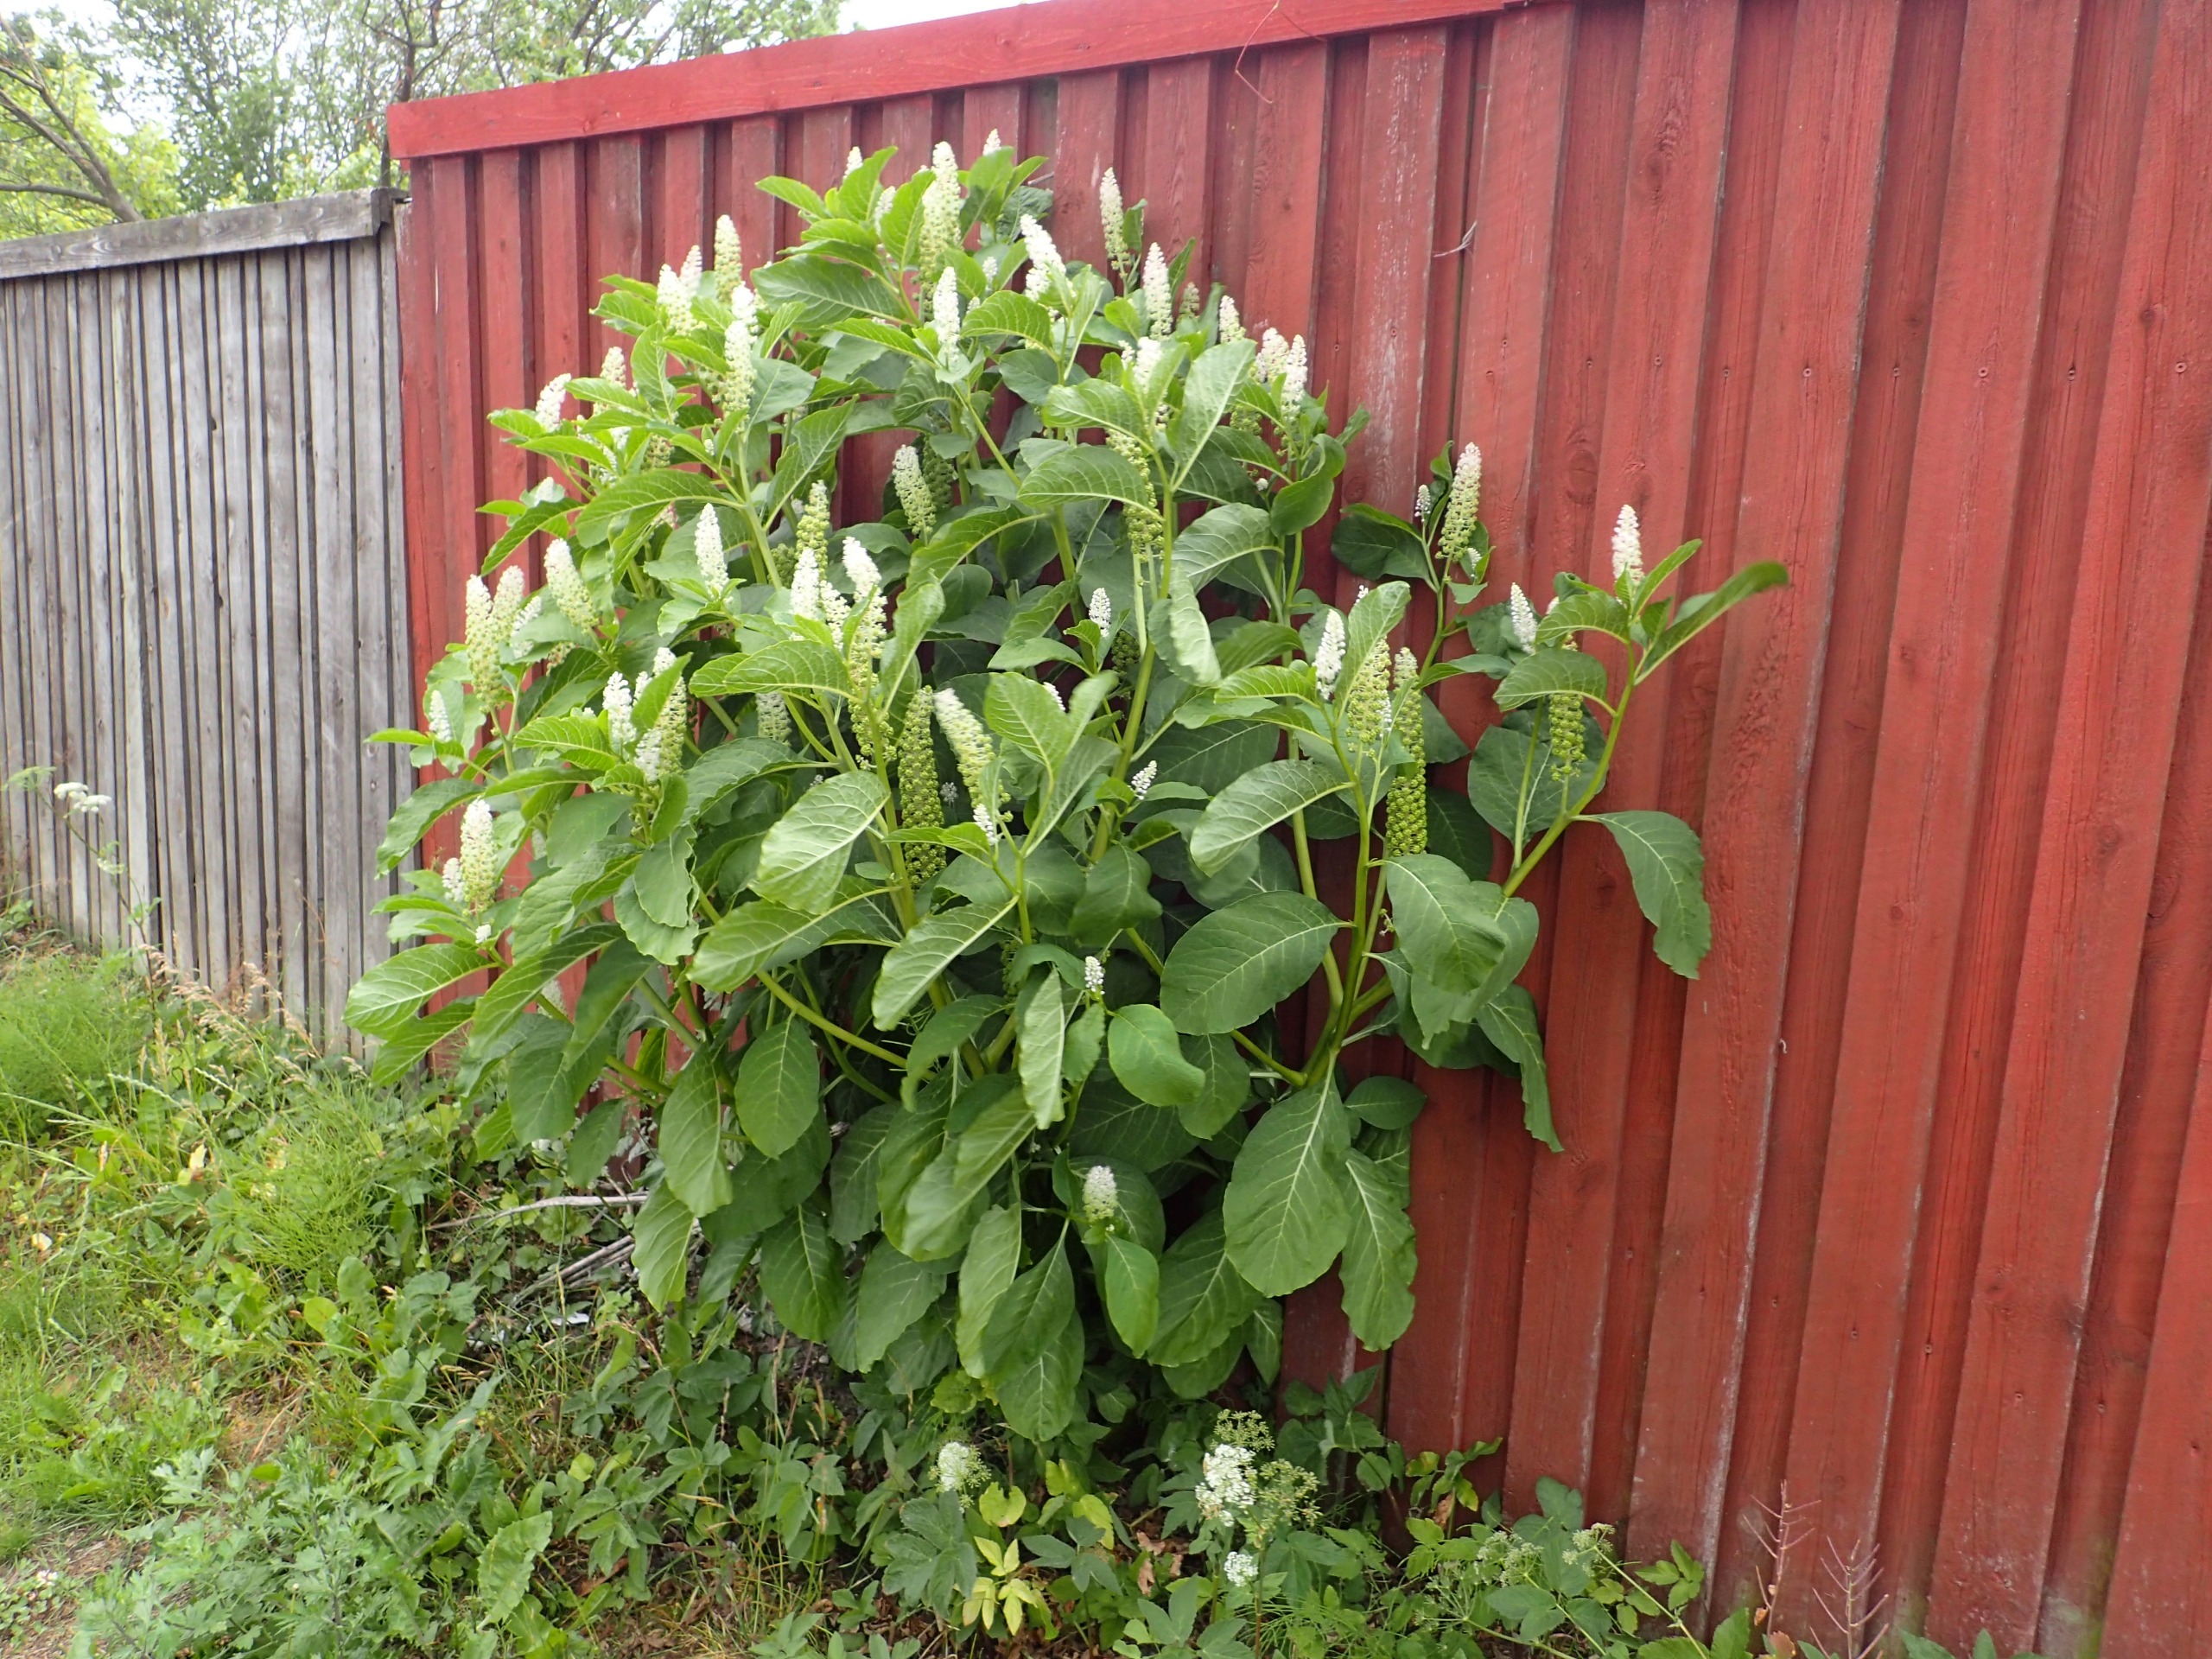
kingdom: Plantae
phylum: Tracheophyta
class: Magnoliopsida
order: Caryophyllales
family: Phytolaccaceae
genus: Phytolacca
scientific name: Phytolacca acinosa
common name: Asiatisk kermesbær
